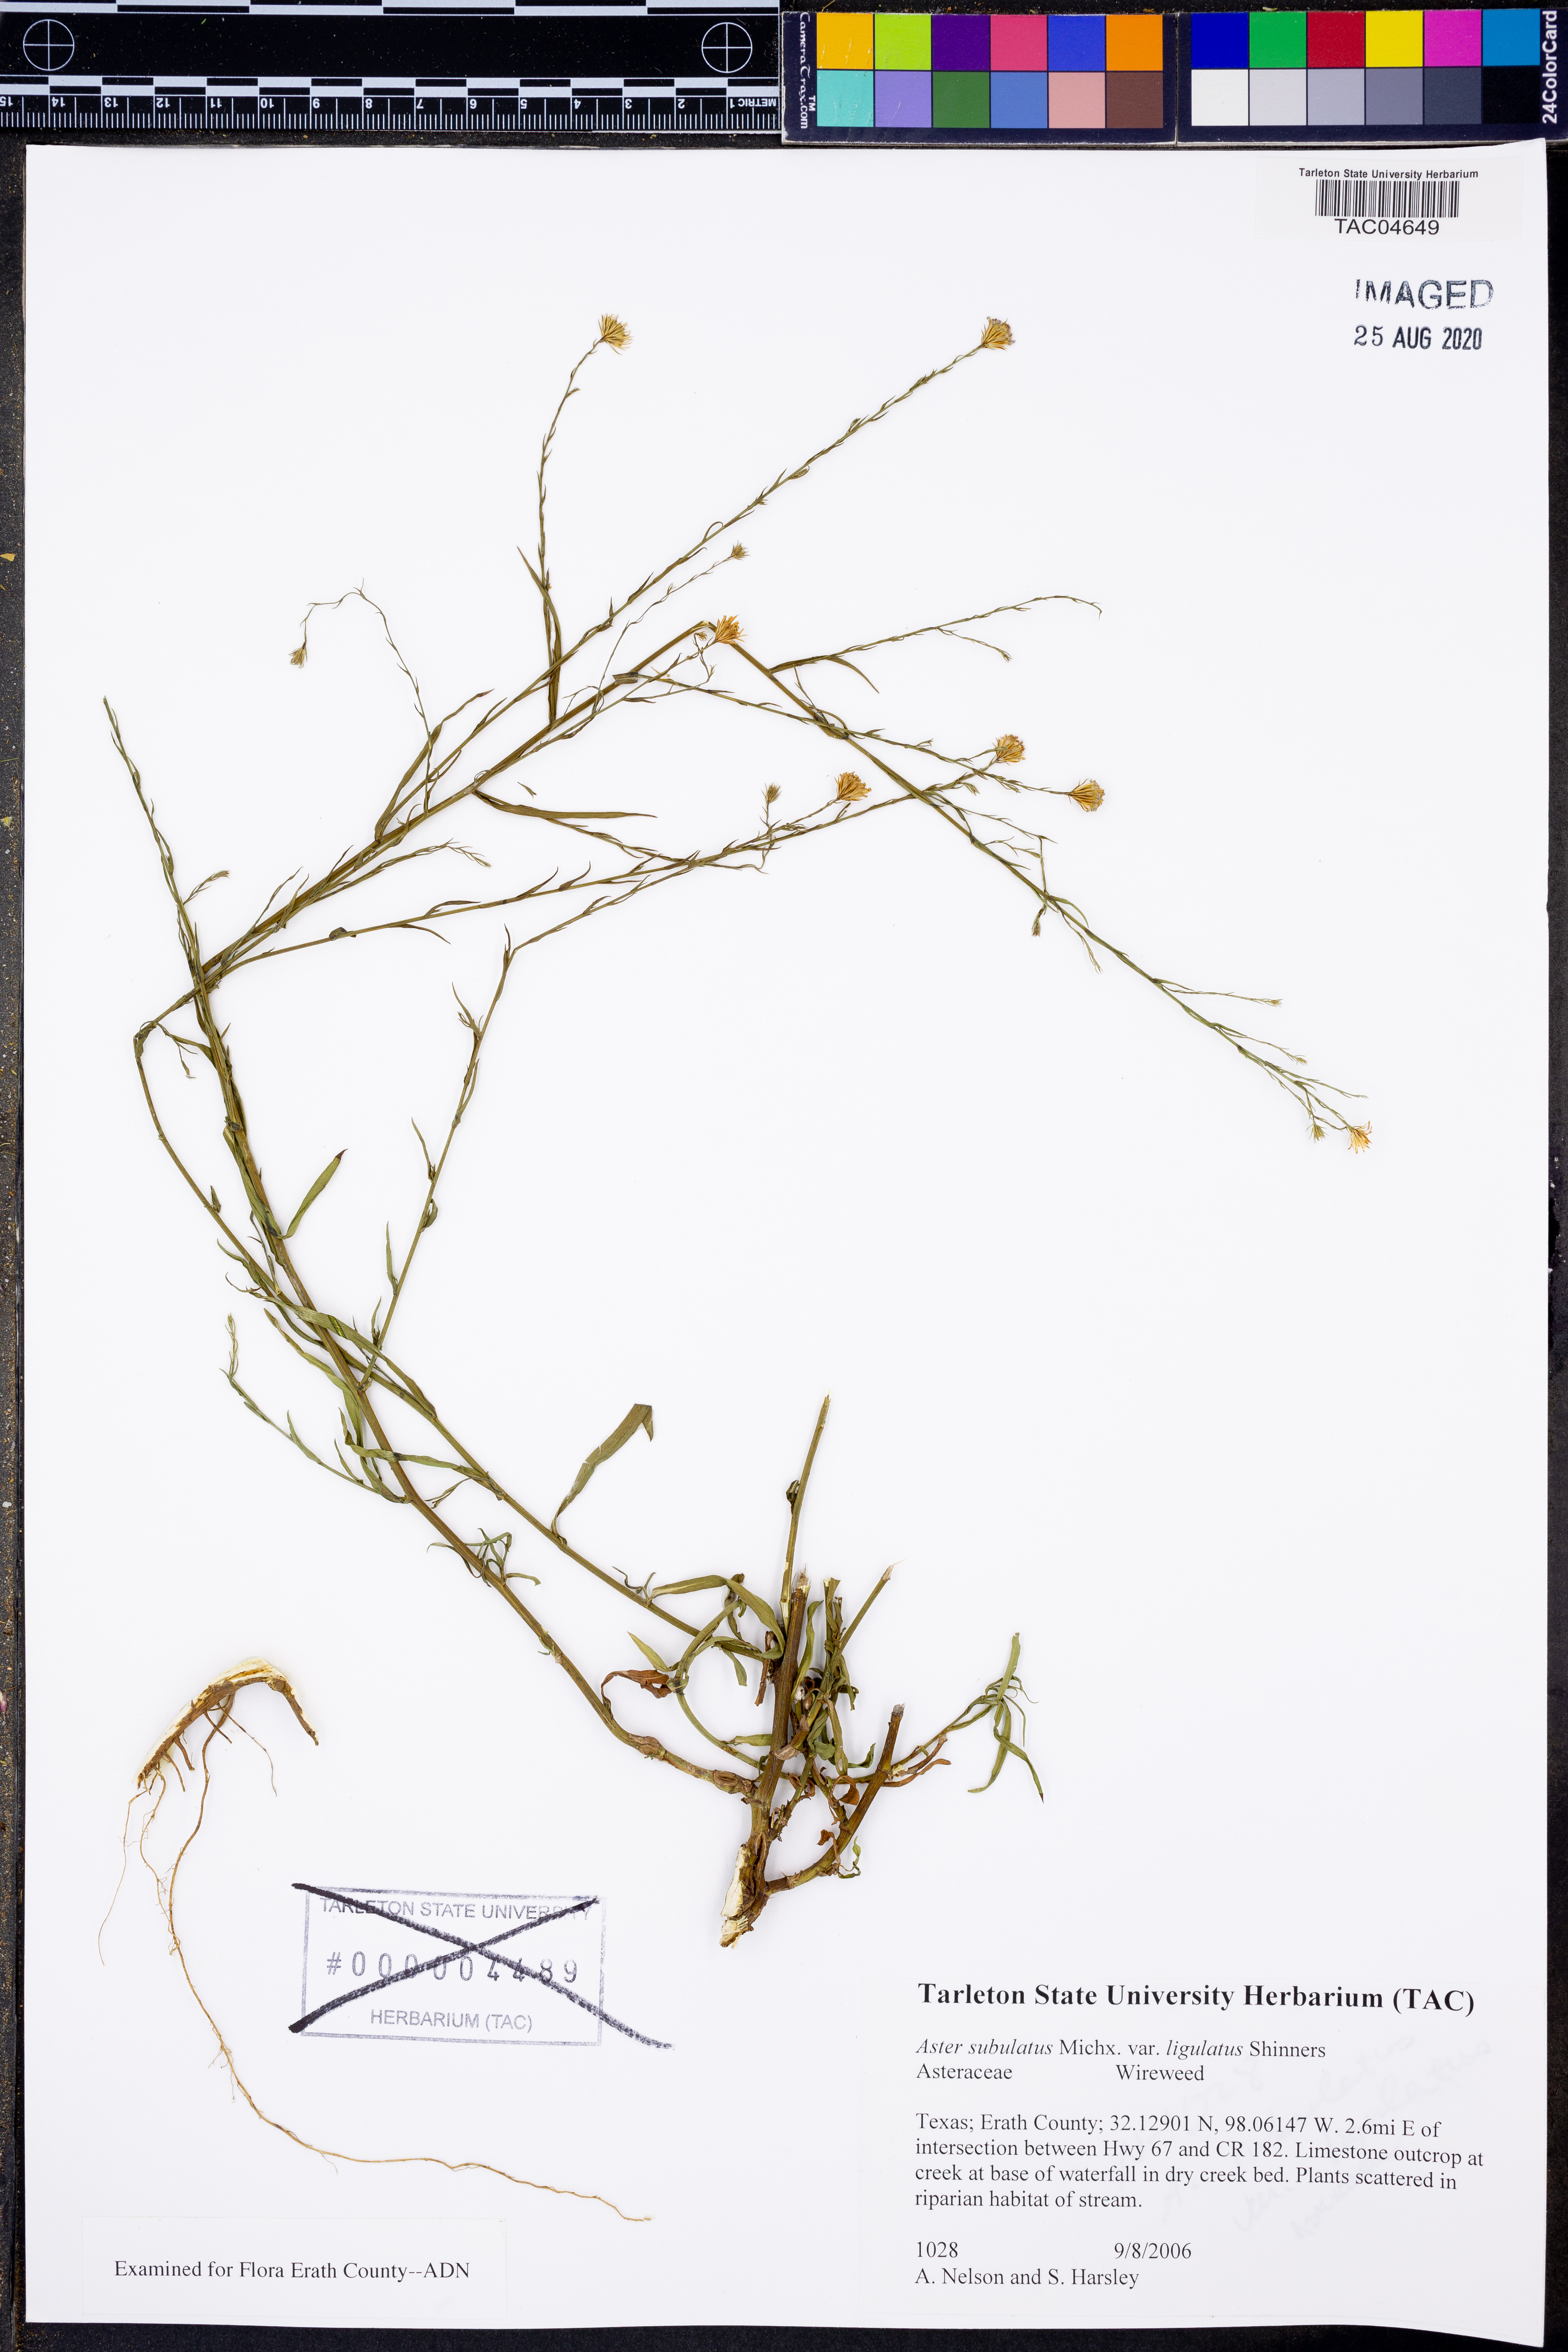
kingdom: Plantae
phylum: Tracheophyta
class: Magnoliopsida
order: Asterales
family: Asteraceae
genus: Symphyotrichum
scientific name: Symphyotrichum divaricatum
